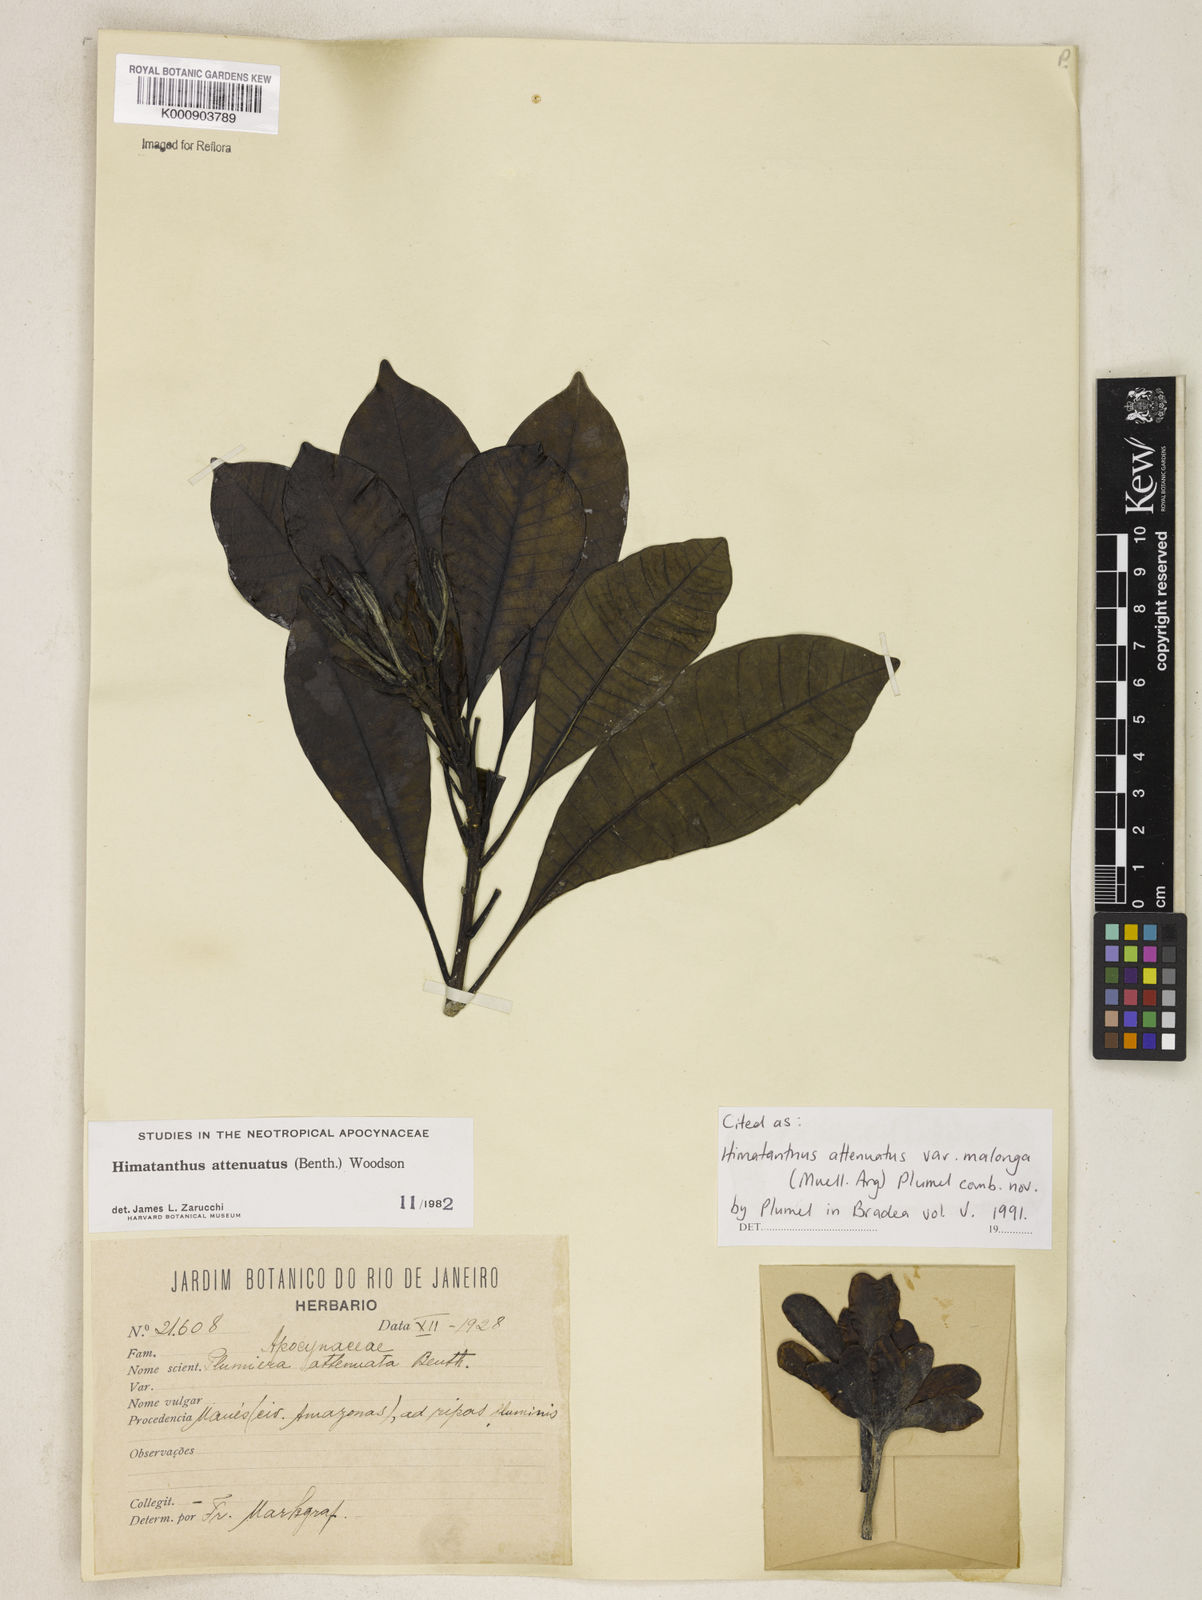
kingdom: Plantae
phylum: Tracheophyta
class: Magnoliopsida
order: Gentianales
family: Apocynaceae
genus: Himatanthus
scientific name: Himatanthus
